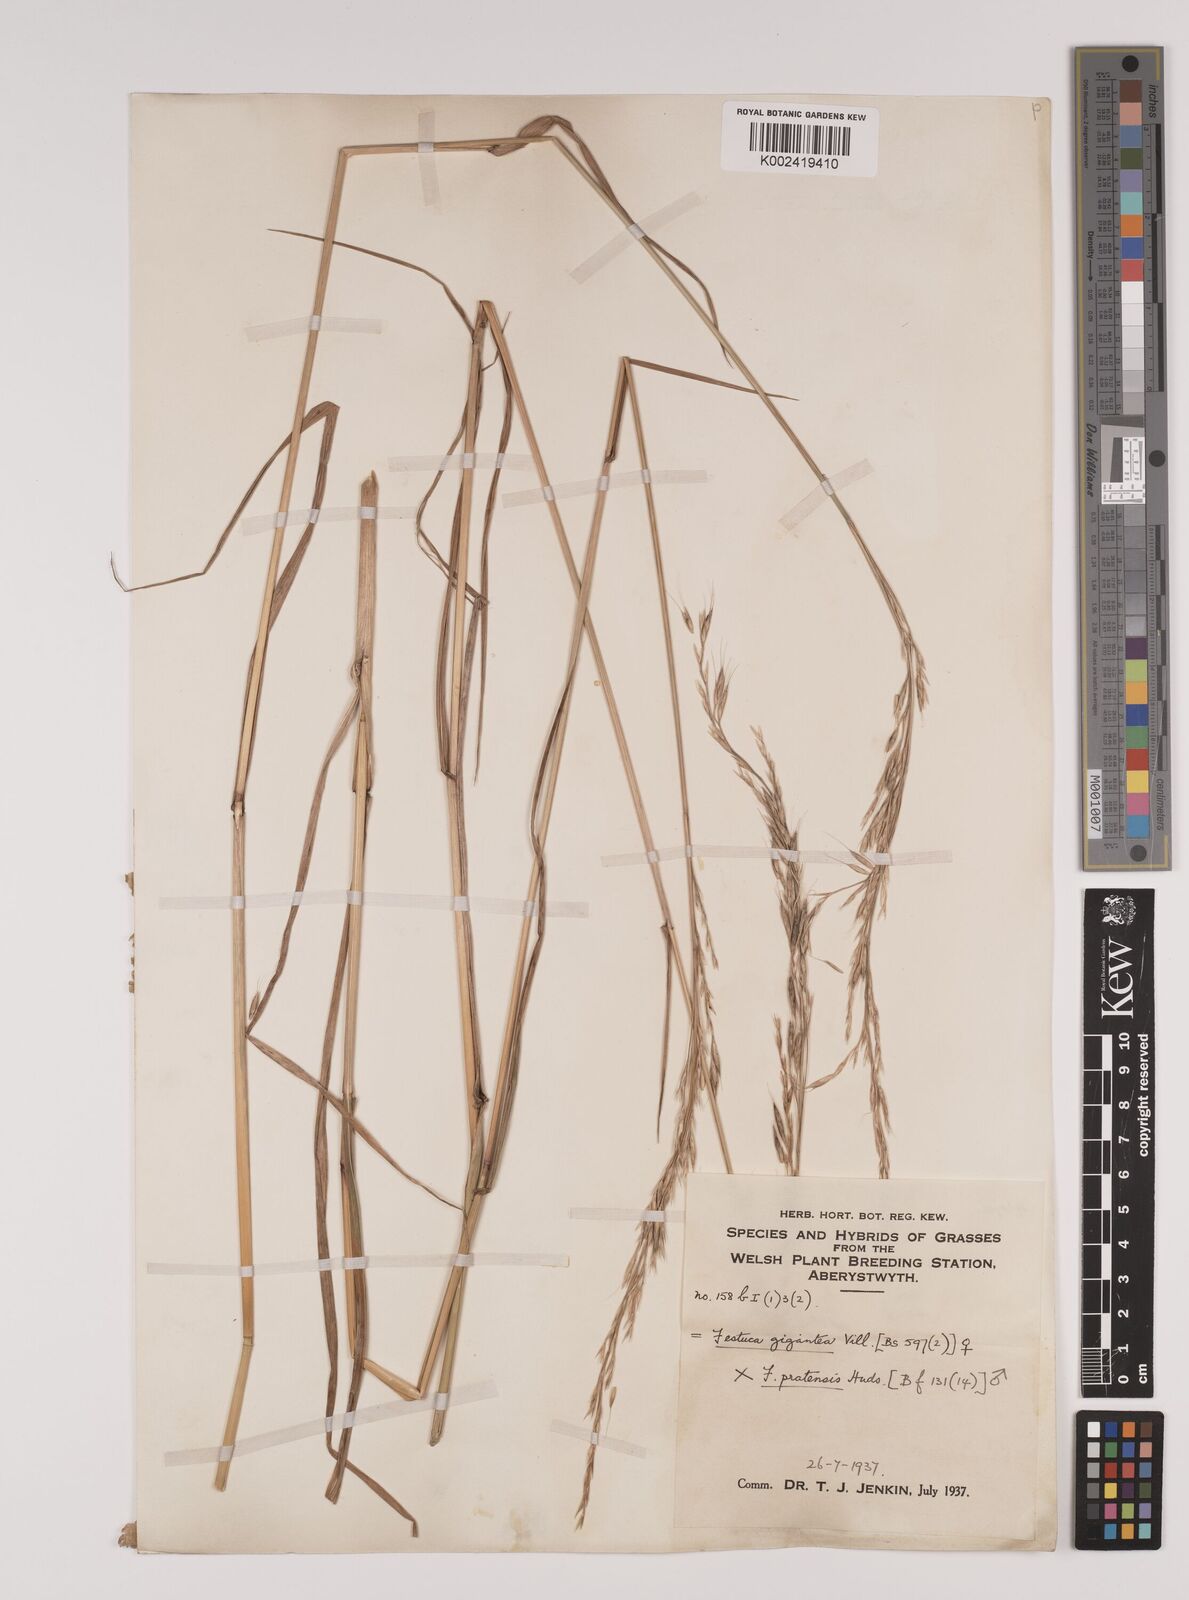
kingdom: Plantae
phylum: Tracheophyta
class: Liliopsida
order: Poales
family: Poaceae
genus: Lolium
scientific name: Lolium giganteum
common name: Giant fescue
